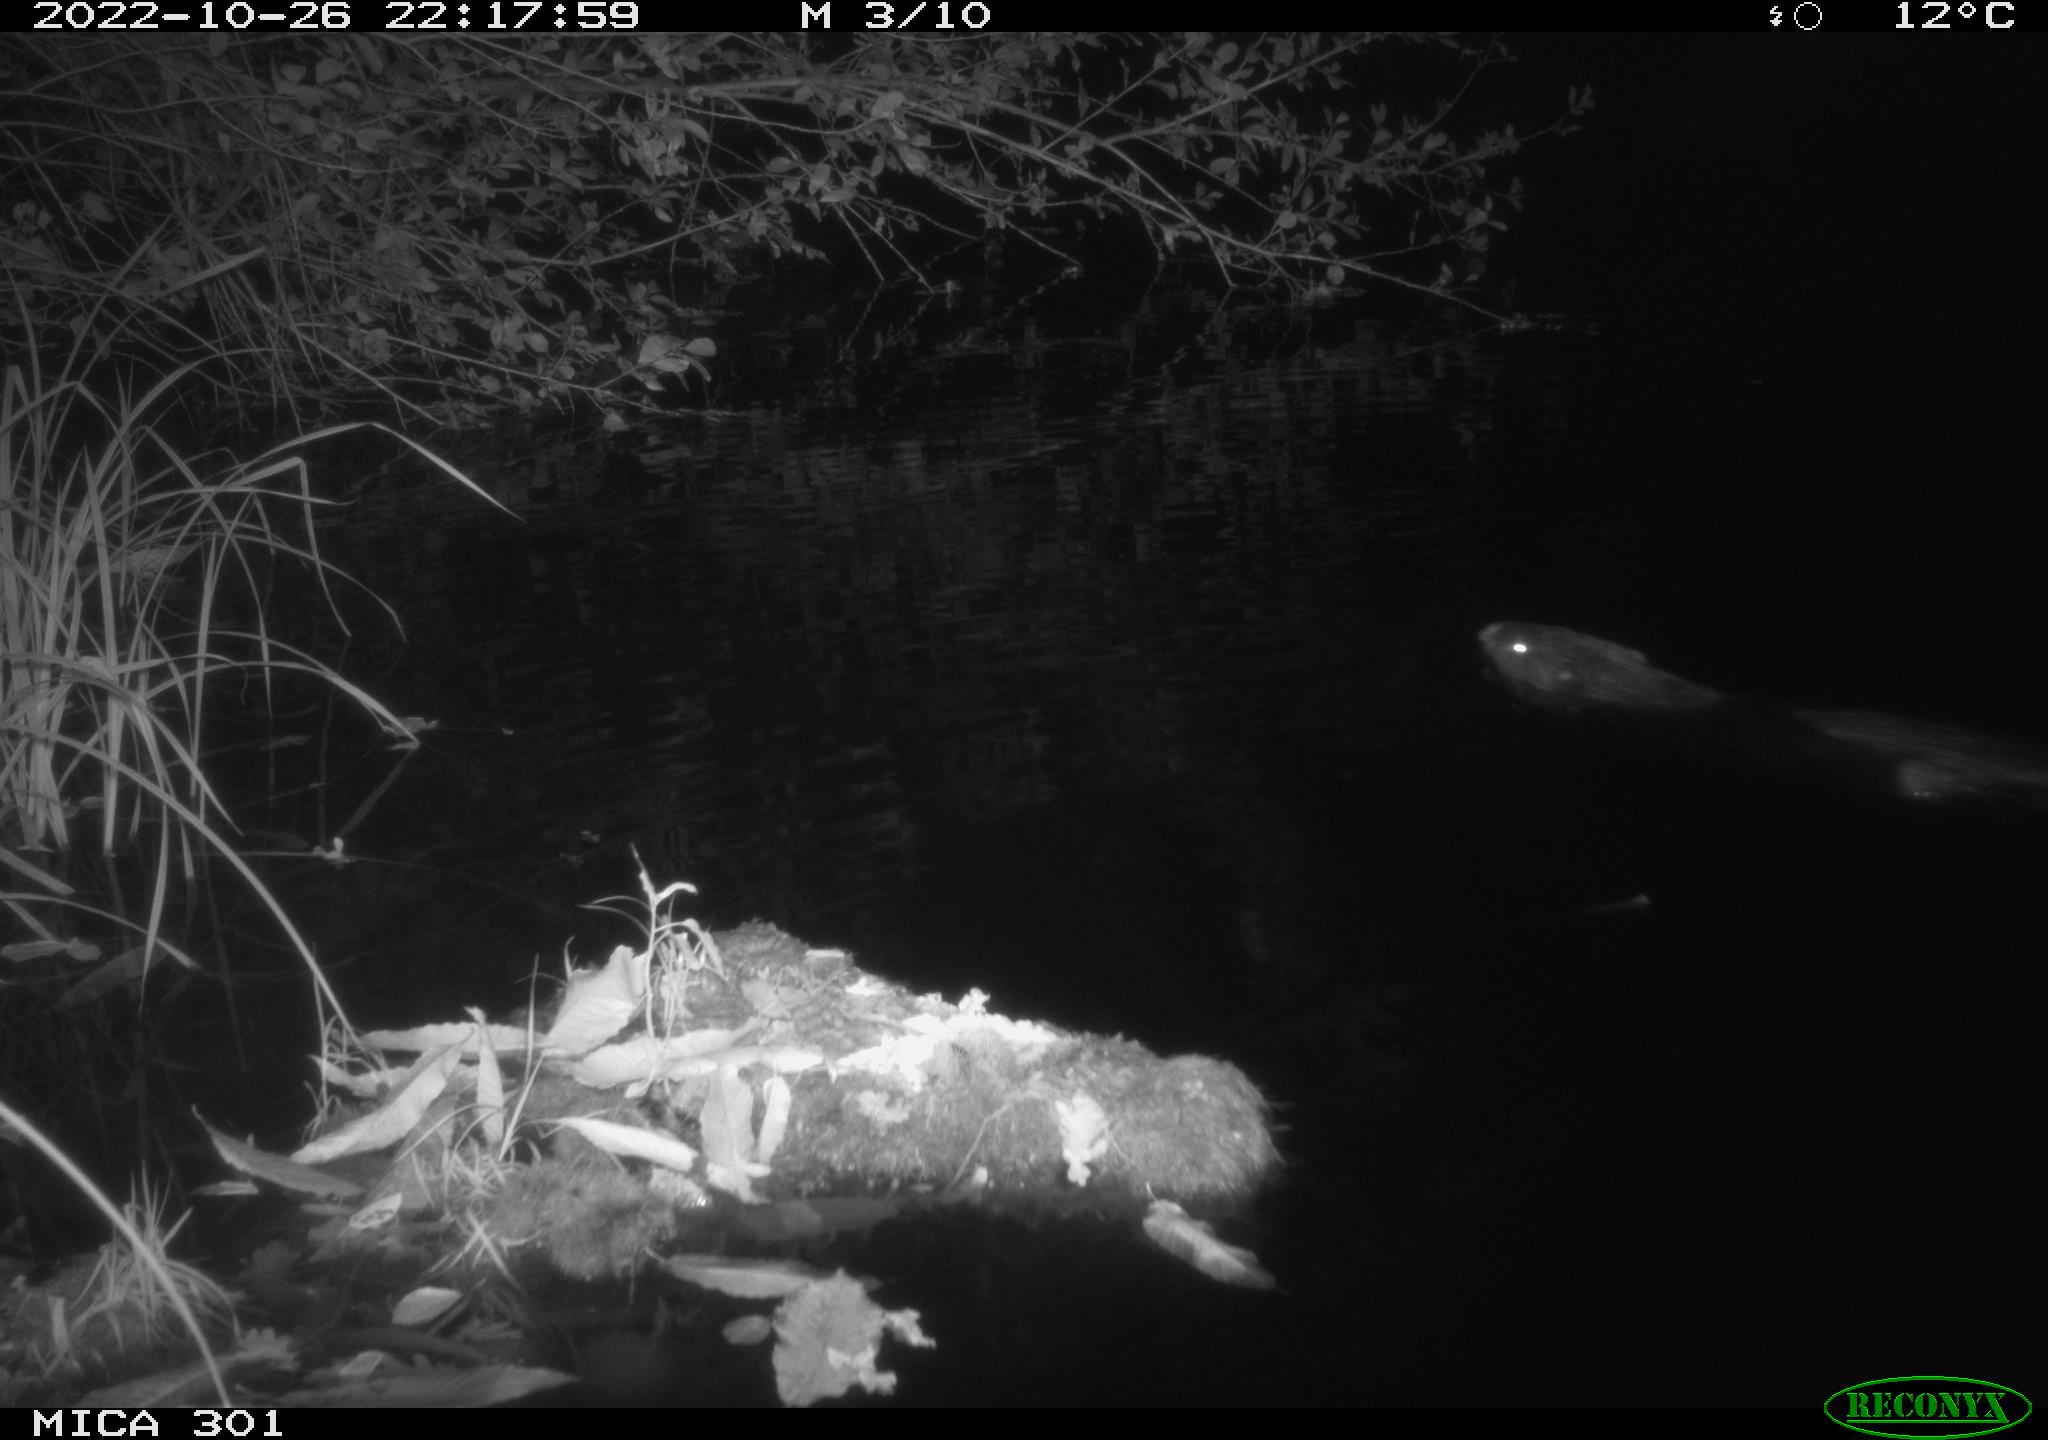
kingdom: Animalia
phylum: Chordata
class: Mammalia
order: Rodentia
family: Castoridae
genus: Castor
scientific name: Castor fiber
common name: Eurasian beaver
